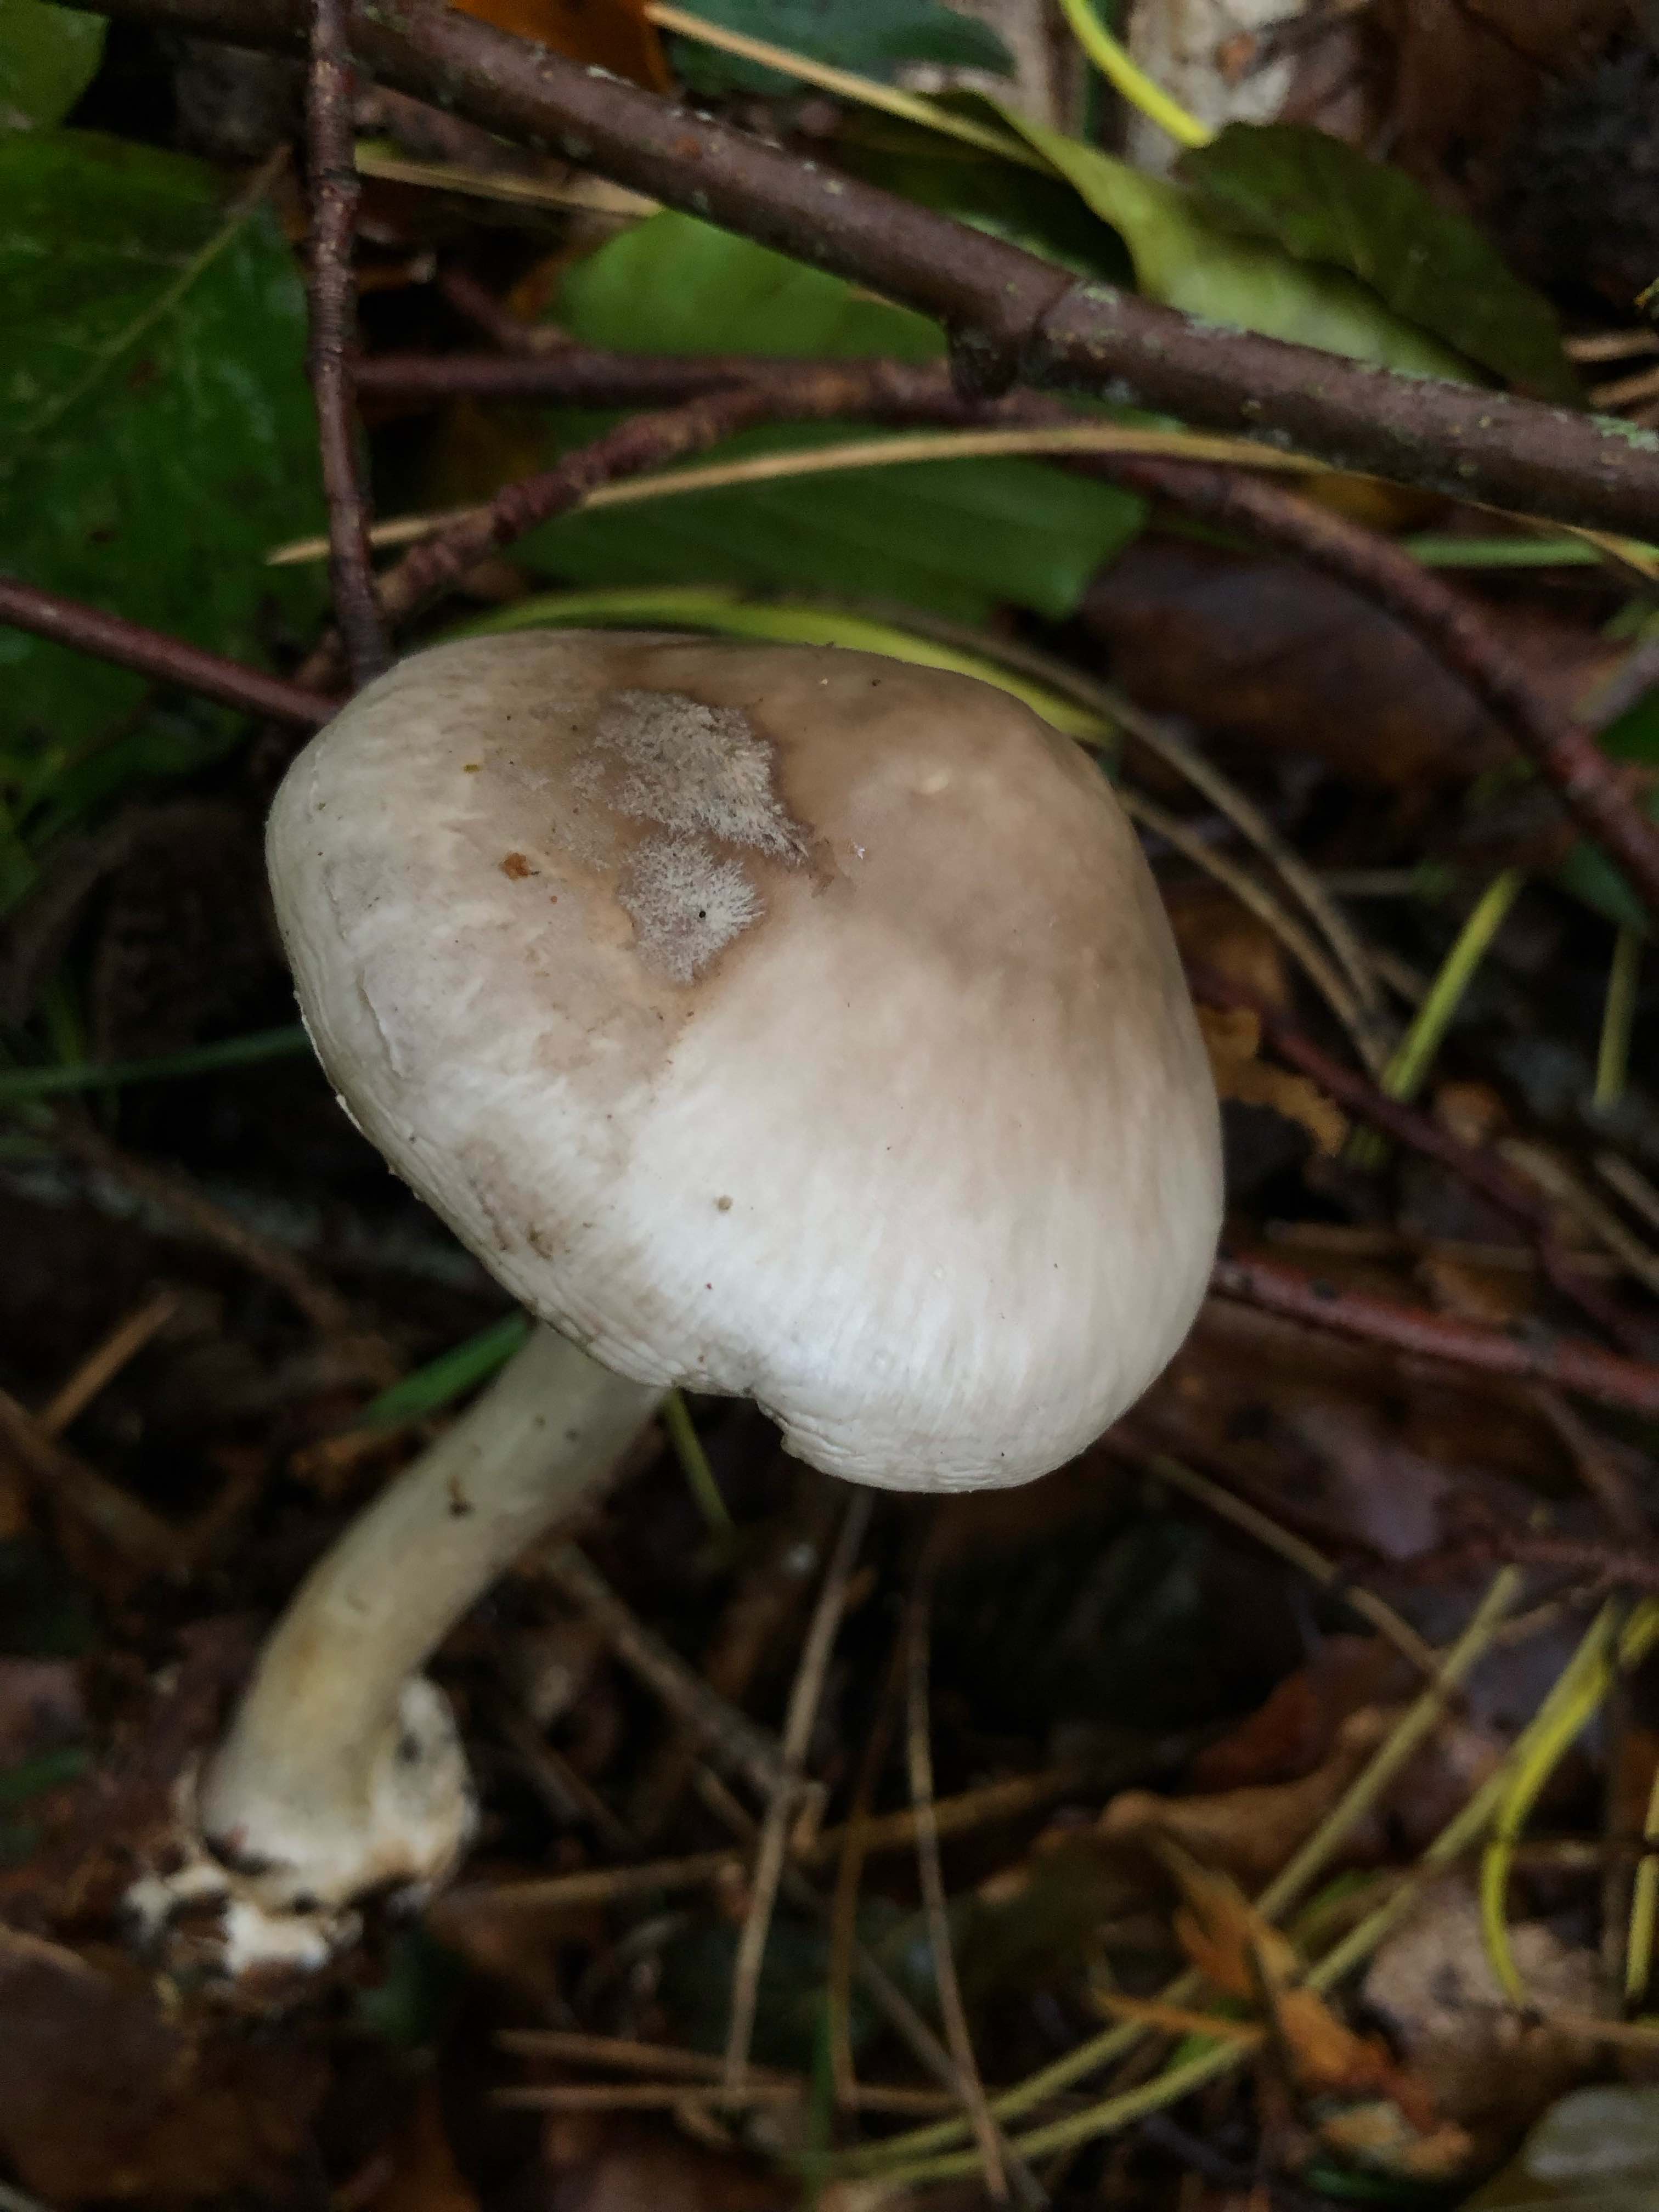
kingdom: Fungi
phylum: Basidiomycota
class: Agaricomycetes
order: Agaricales
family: Amanitaceae
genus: Amanita
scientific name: Amanita porphyria
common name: porfyr-fluesvamp
